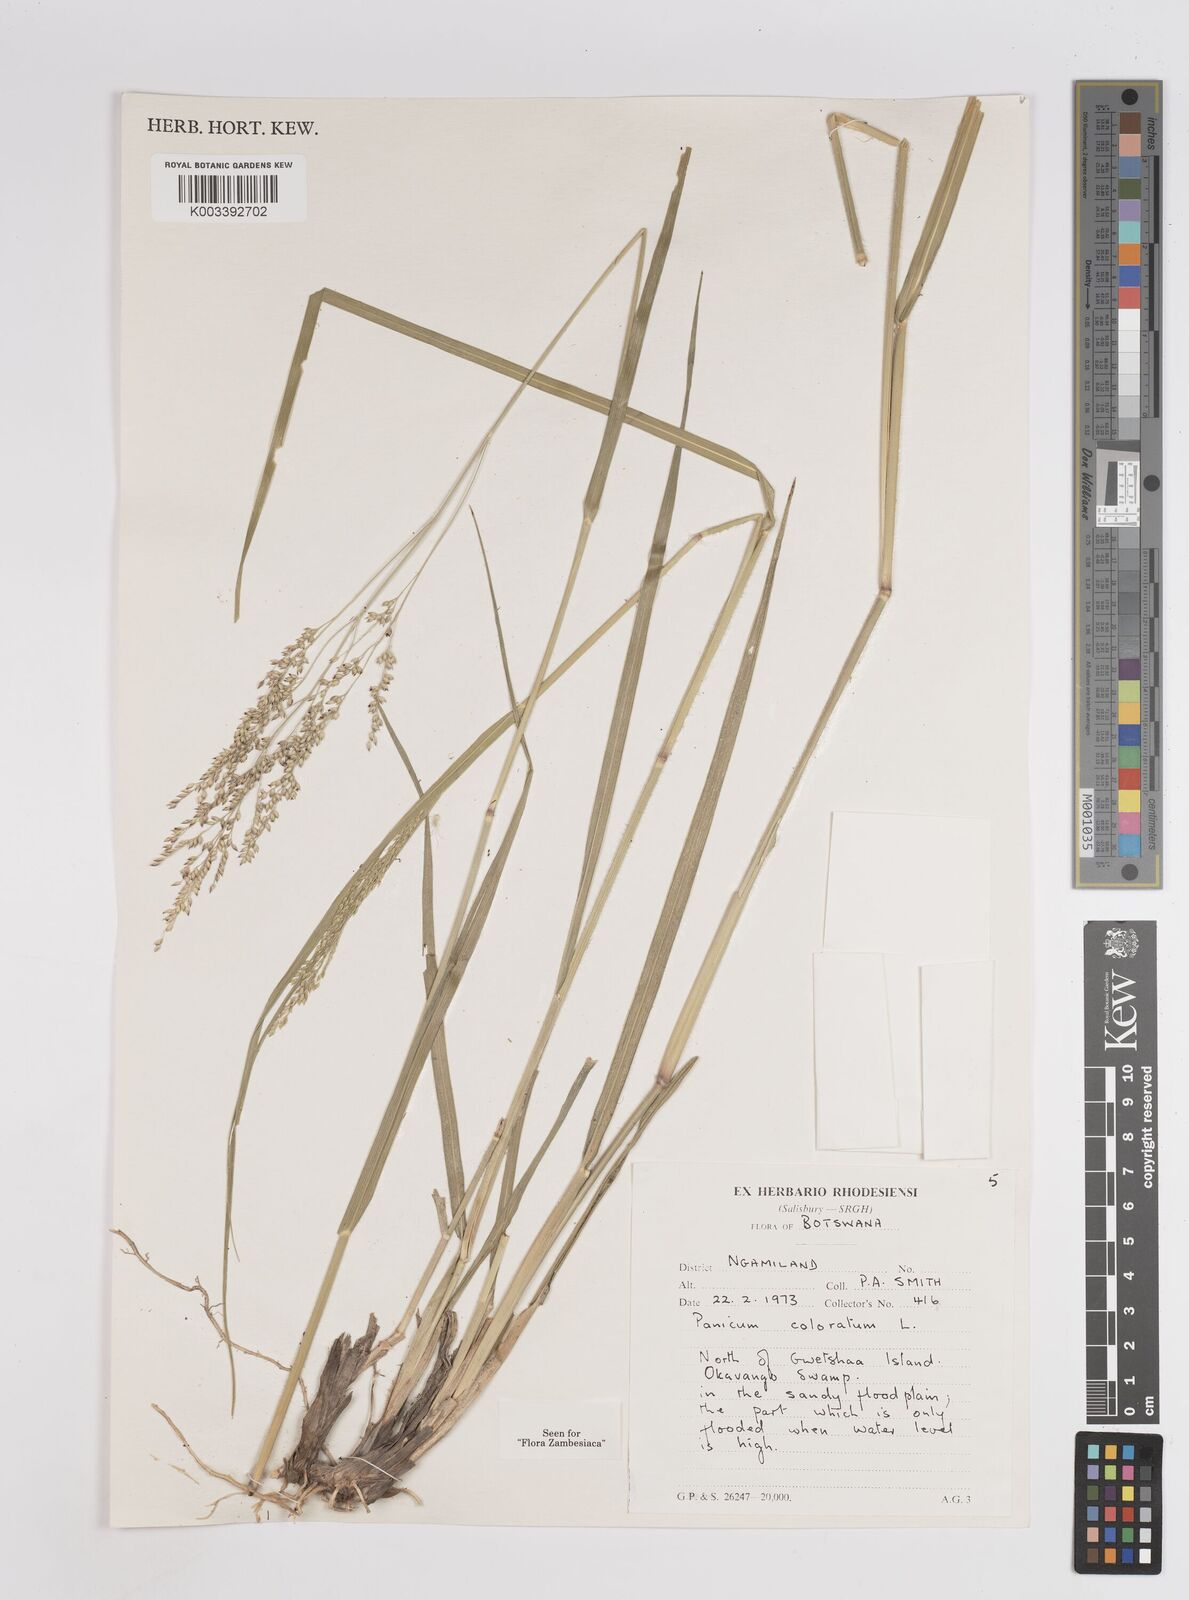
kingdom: Plantae
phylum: Tracheophyta
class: Liliopsida
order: Poales
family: Poaceae
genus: Panicum
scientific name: Panicum coloratum
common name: Kleingrass
